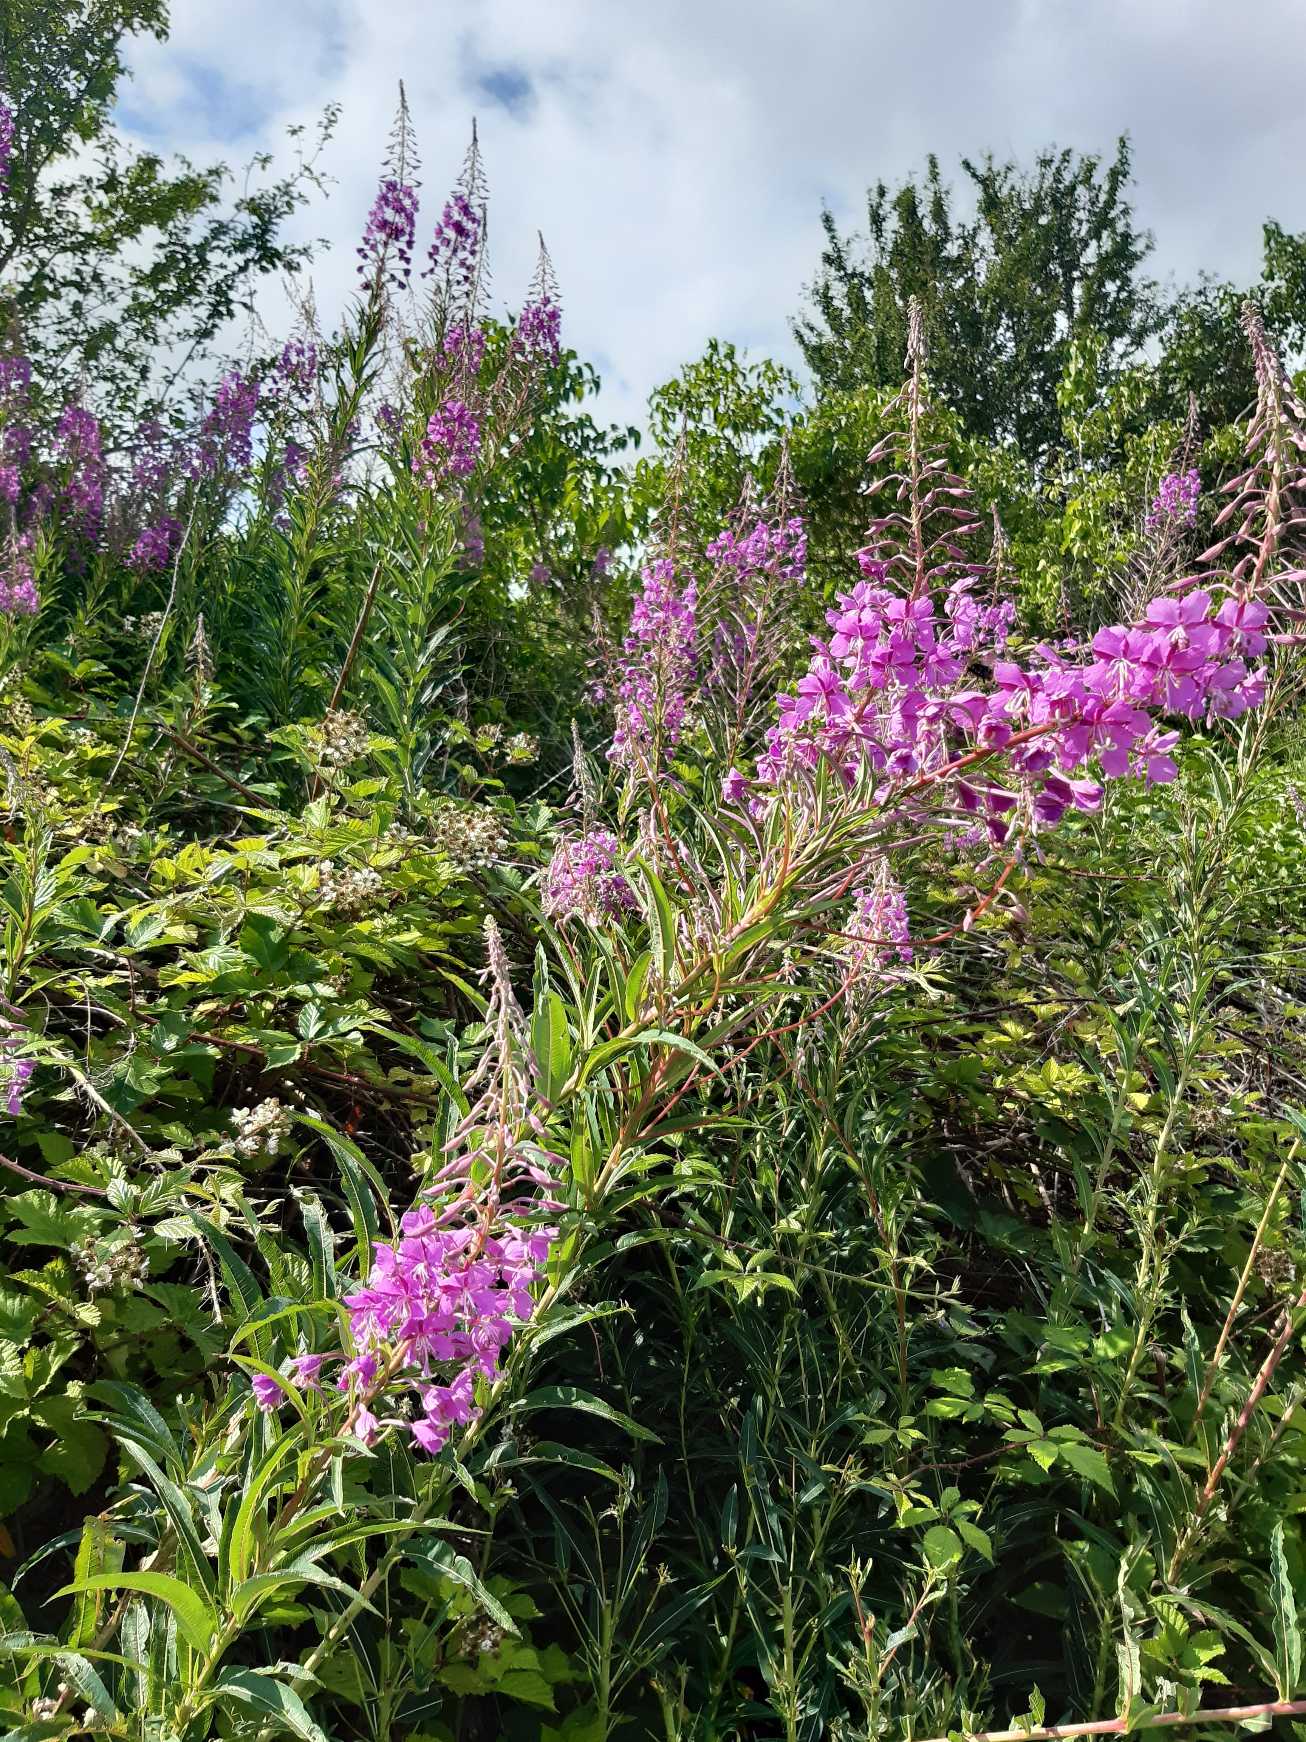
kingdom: Plantae
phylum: Tracheophyta
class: Magnoliopsida
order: Myrtales
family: Onagraceae
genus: Chamaenerion
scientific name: Chamaenerion angustifolium
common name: Gederams
